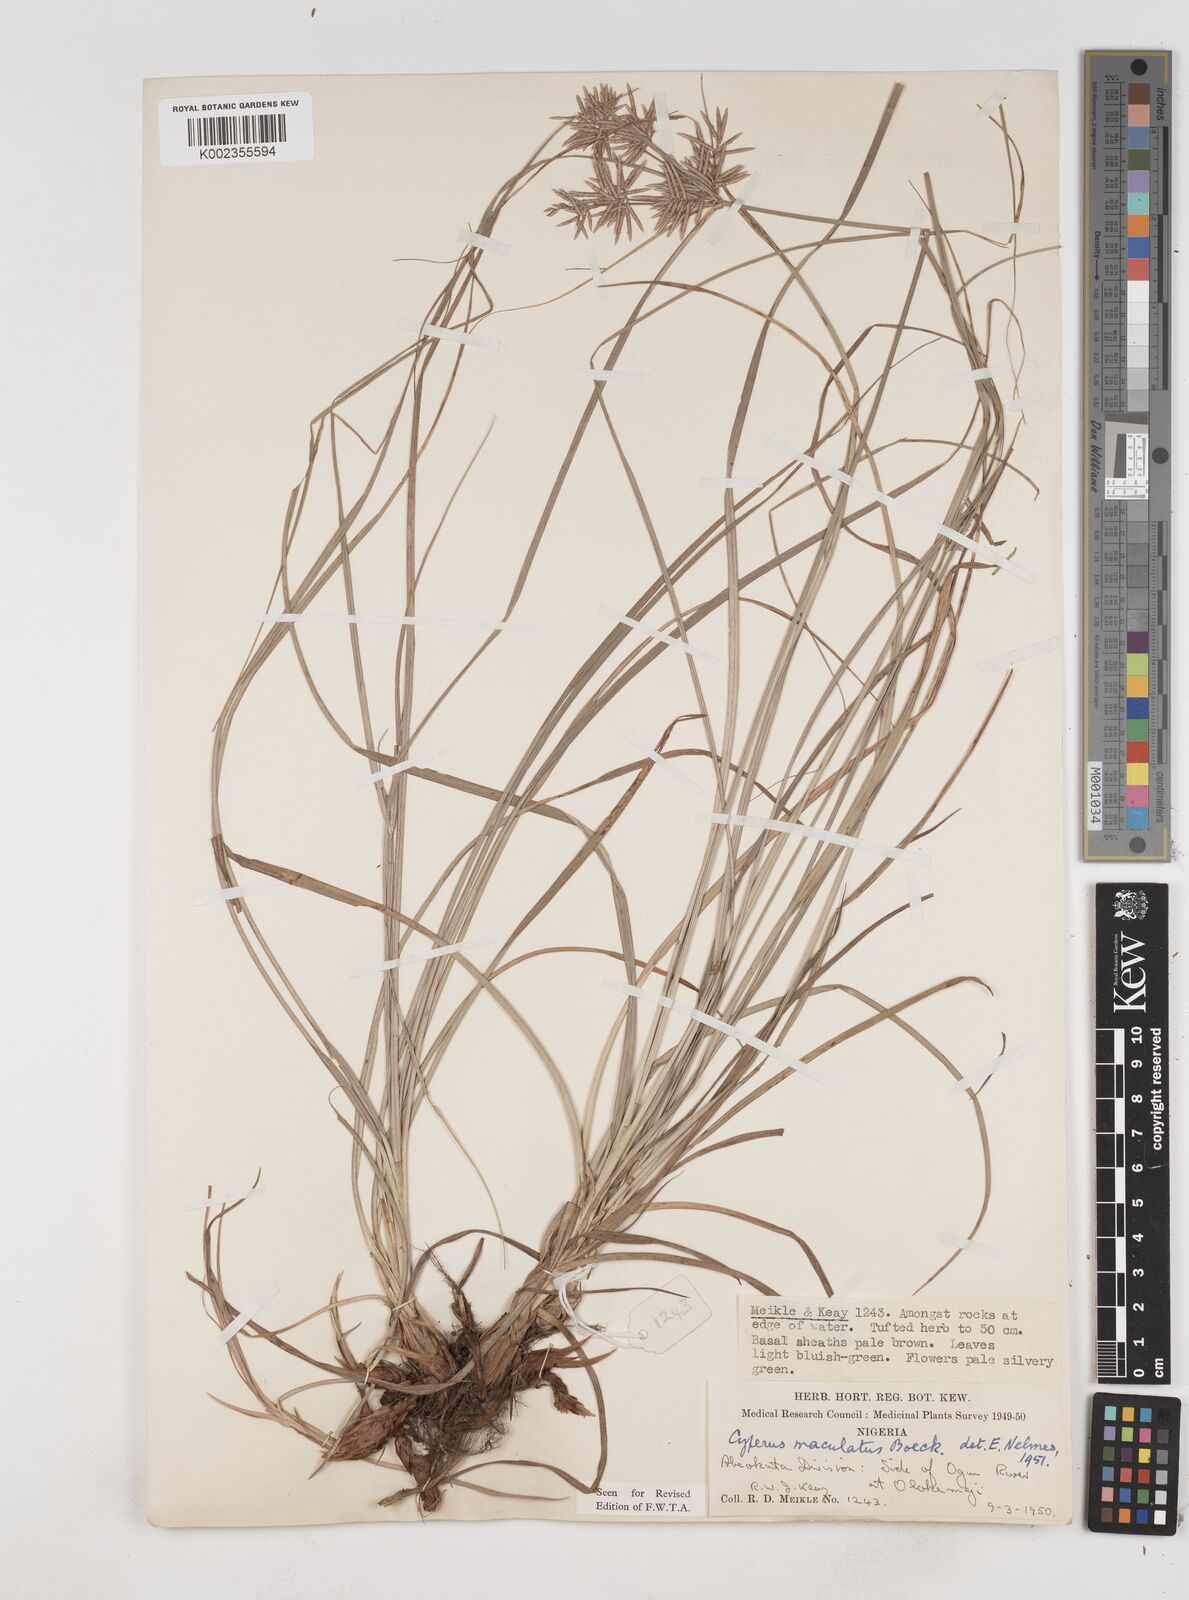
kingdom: Plantae
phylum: Tracheophyta
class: Liliopsida
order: Poales
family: Cyperaceae
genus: Cyperus
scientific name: Cyperus maculatus
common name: Maculated sedge
